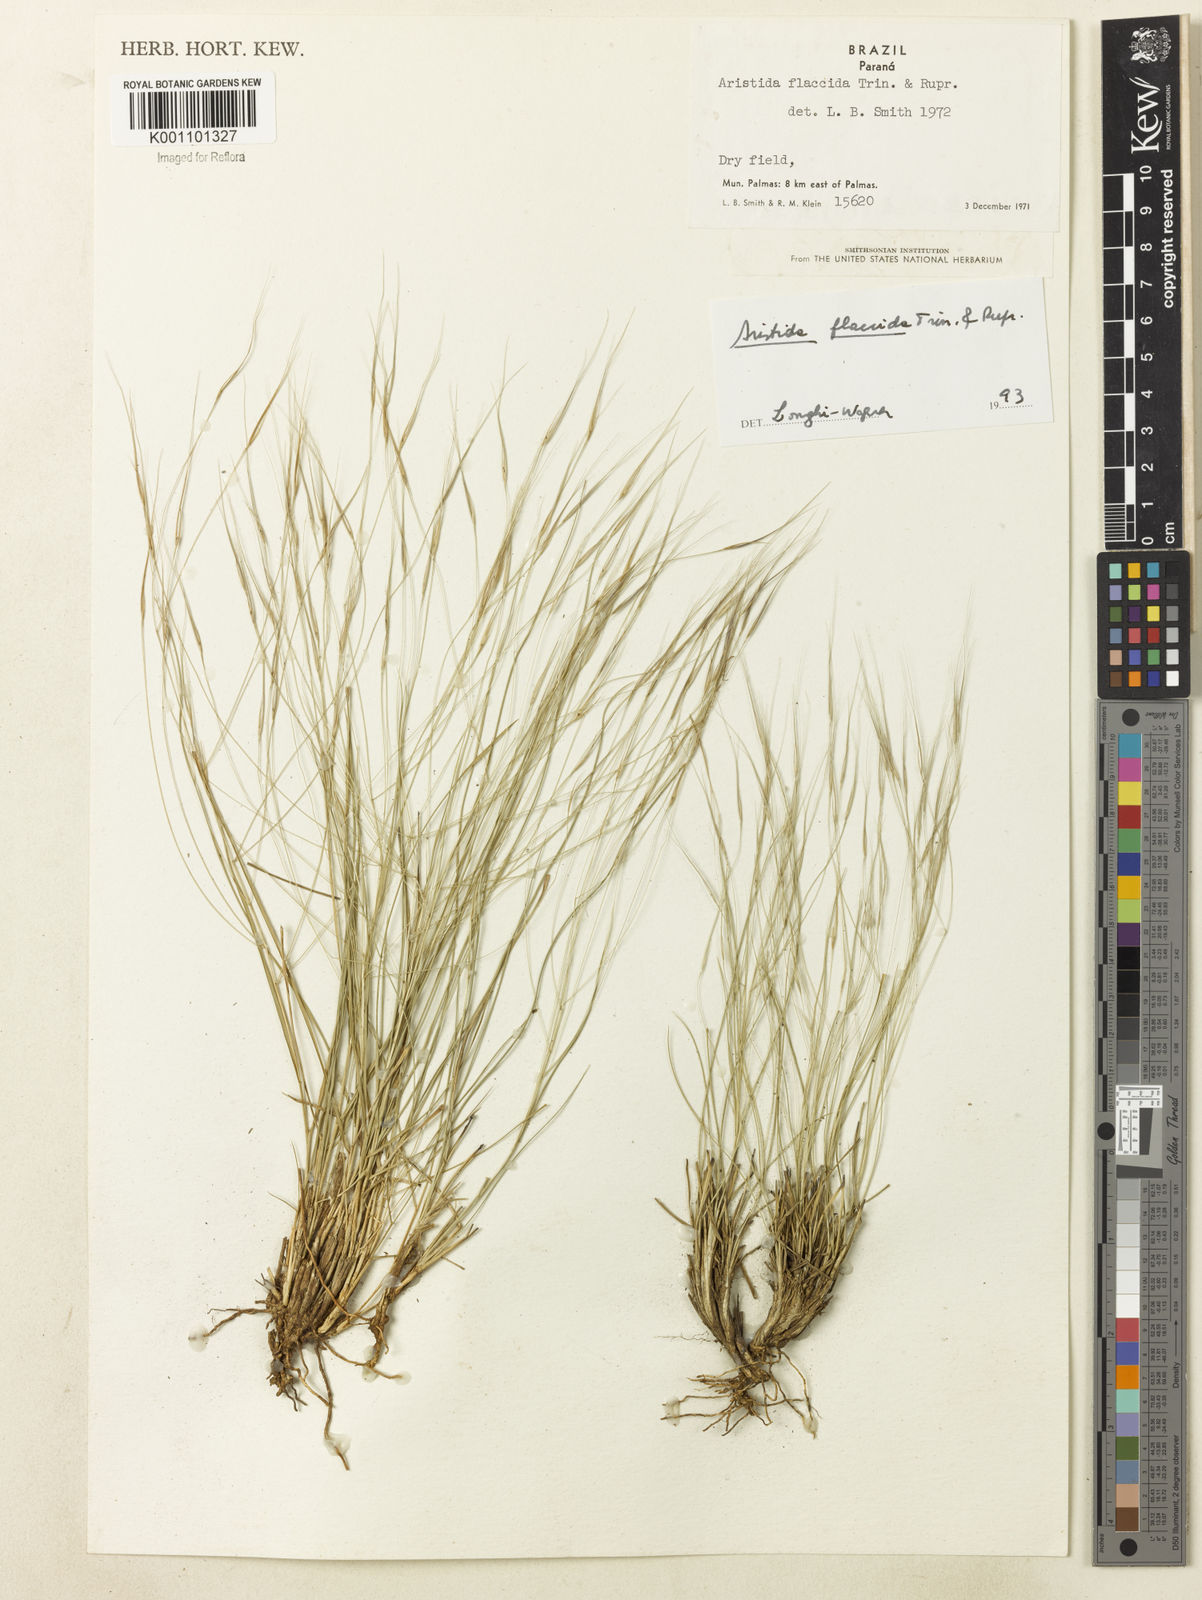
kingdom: Plantae
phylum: Tracheophyta
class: Liliopsida
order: Poales
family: Poaceae
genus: Aristida
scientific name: Aristida flaccida
